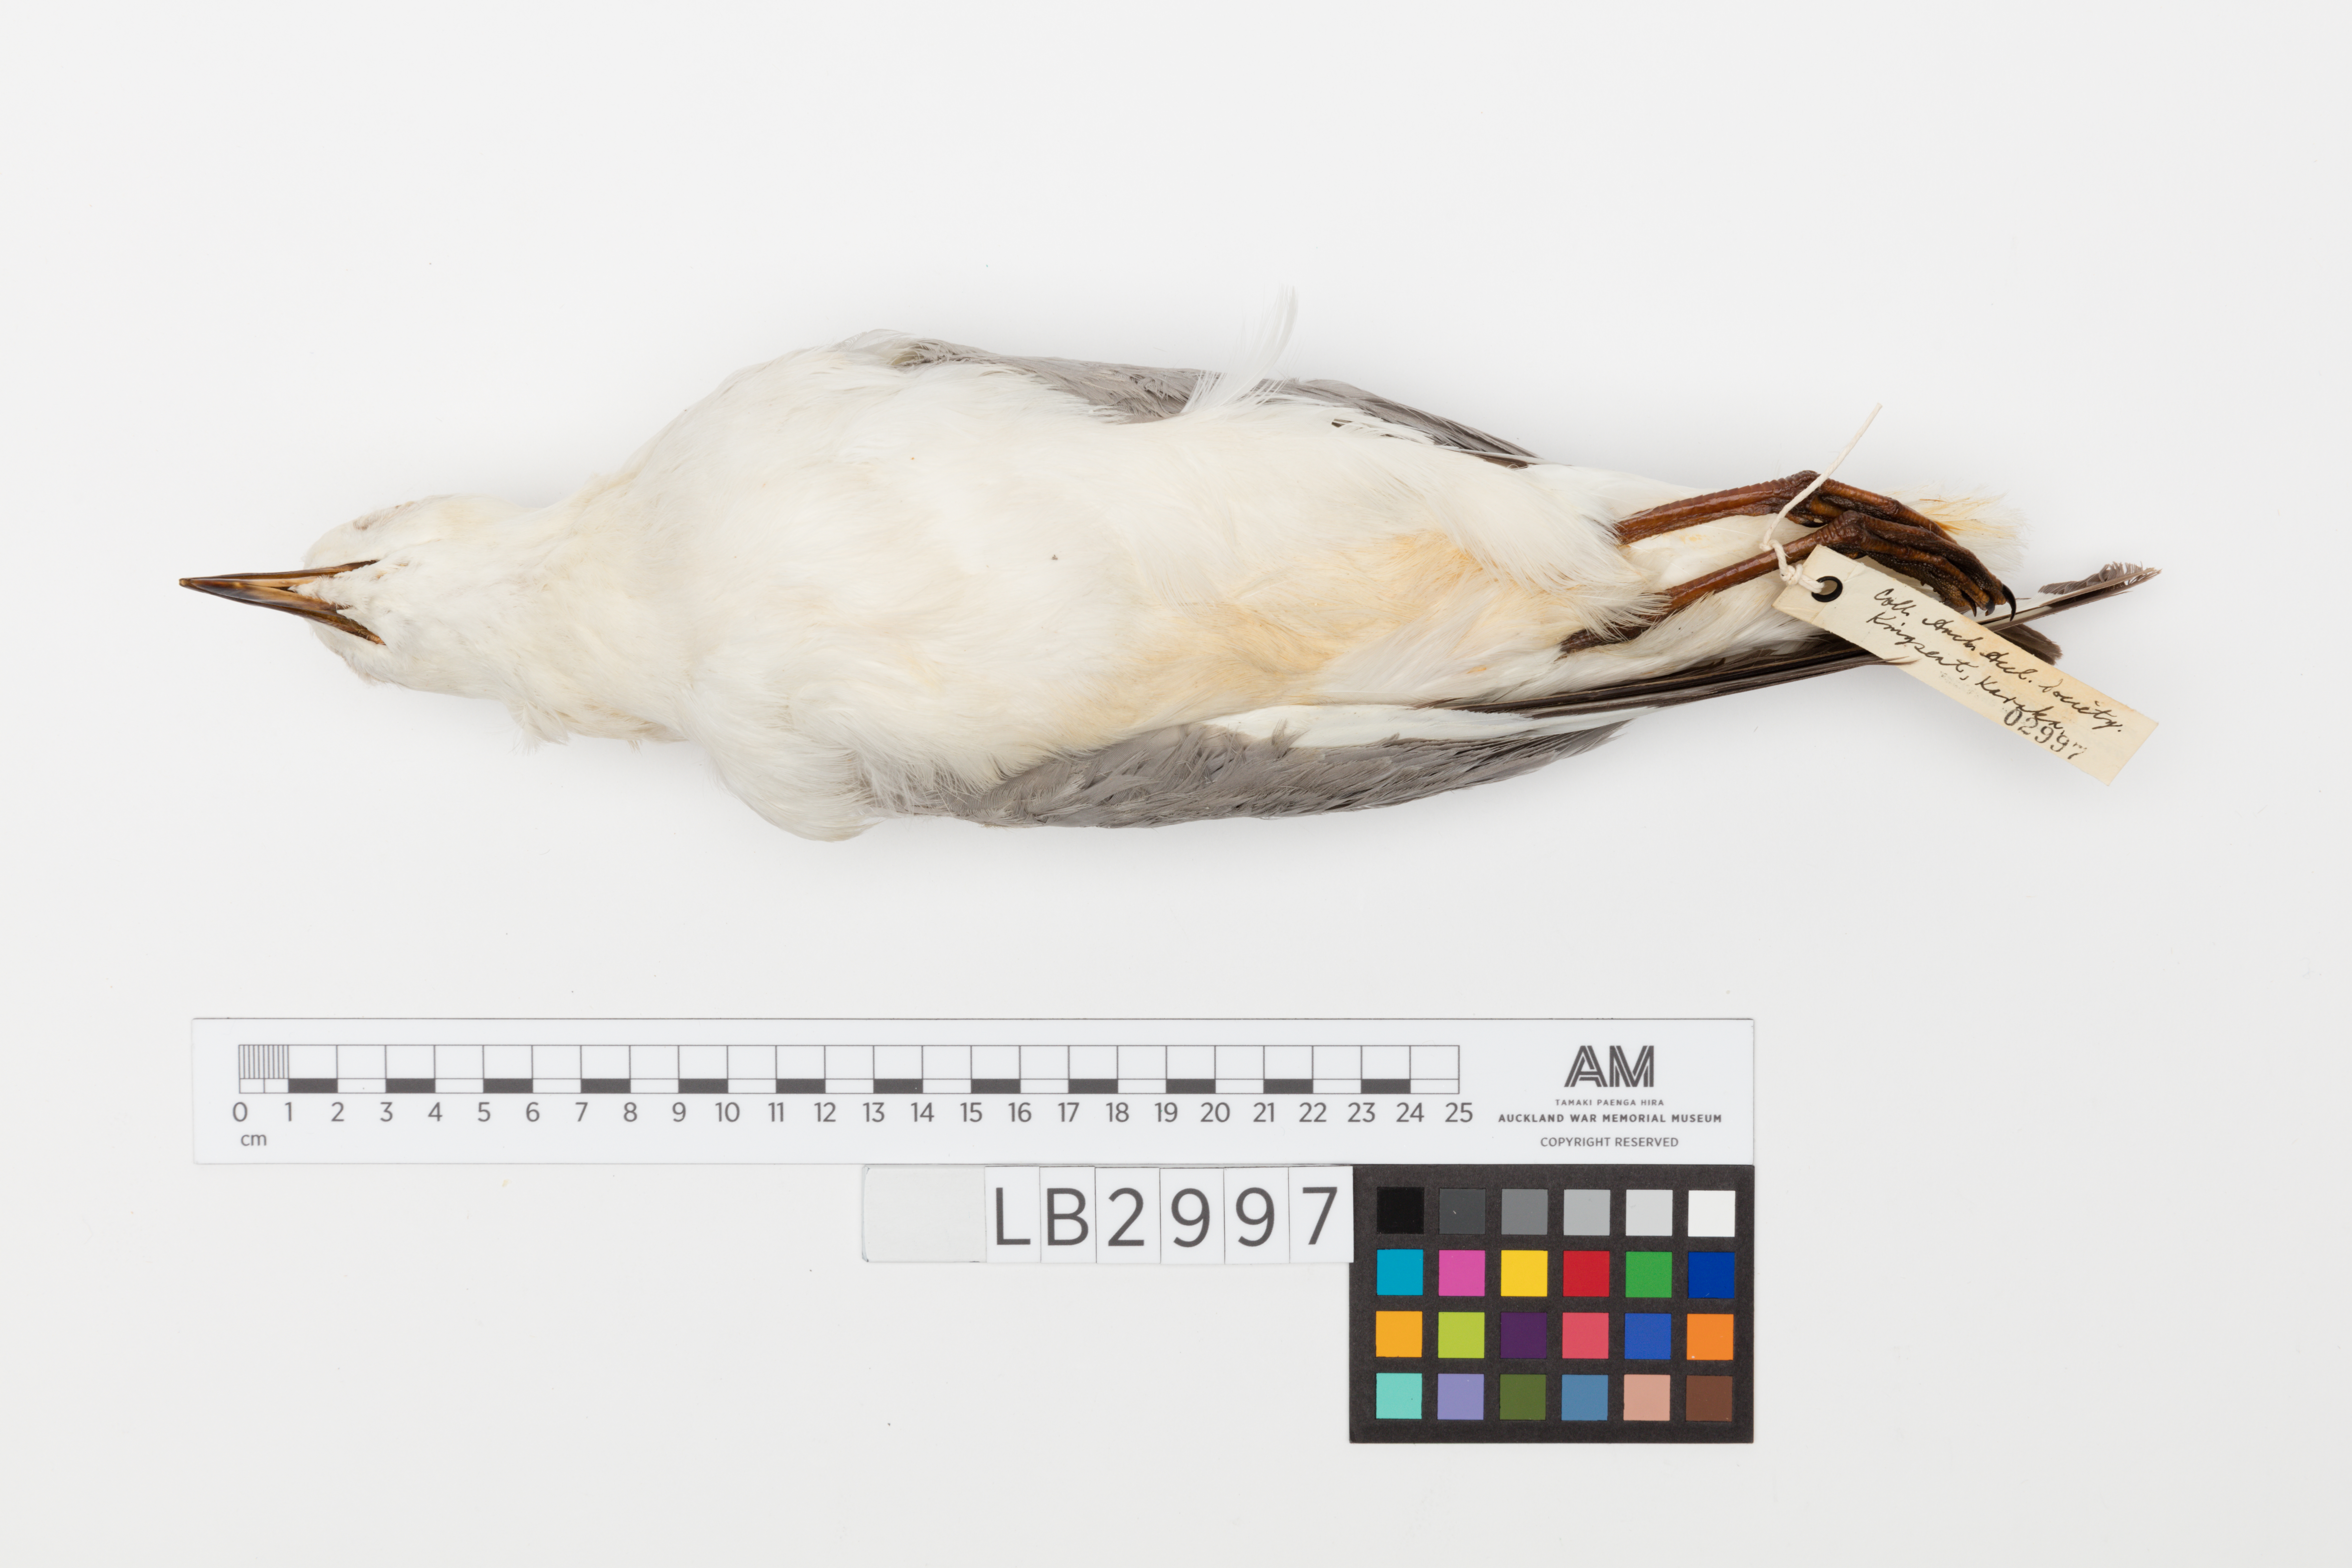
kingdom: Animalia
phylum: Chordata
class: Aves
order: Charadriiformes
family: Laridae
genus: Chroicocephalus
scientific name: Chroicocephalus novaehollandiae
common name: Silver gull
